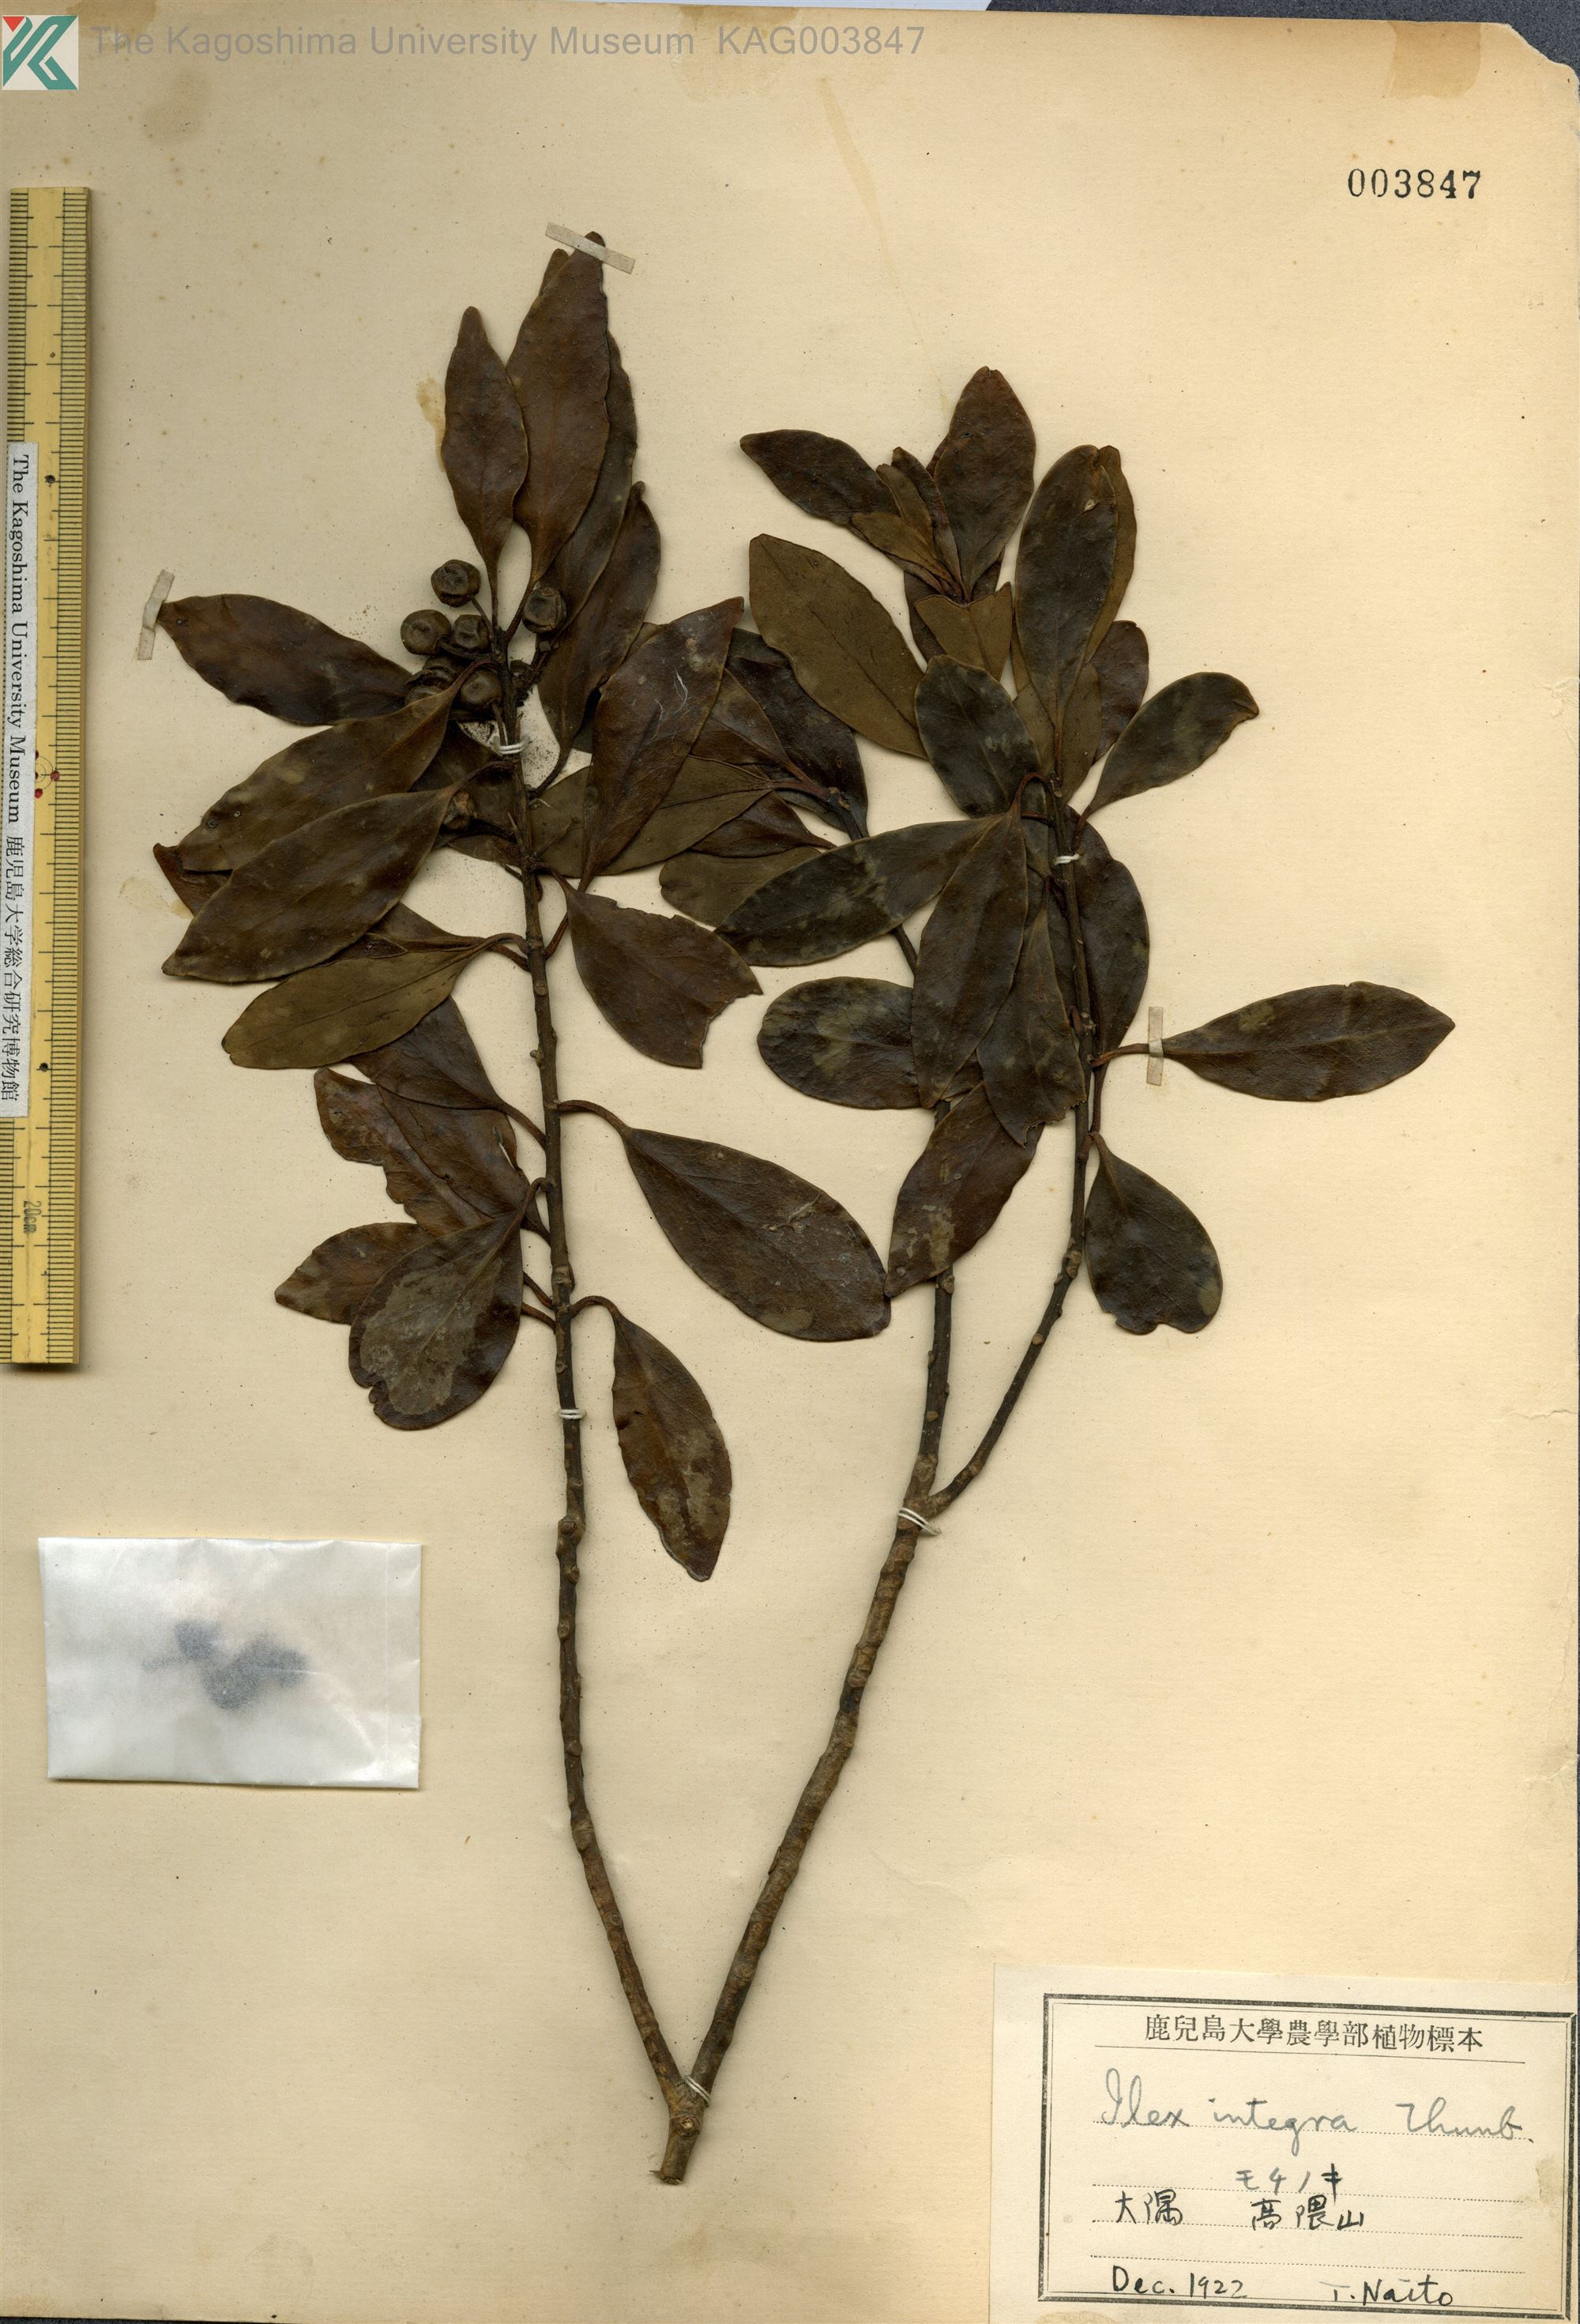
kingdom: Plantae
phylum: Tracheophyta
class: Magnoliopsida
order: Aquifoliales
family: Aquifoliaceae
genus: Ilex
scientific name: Ilex integra
